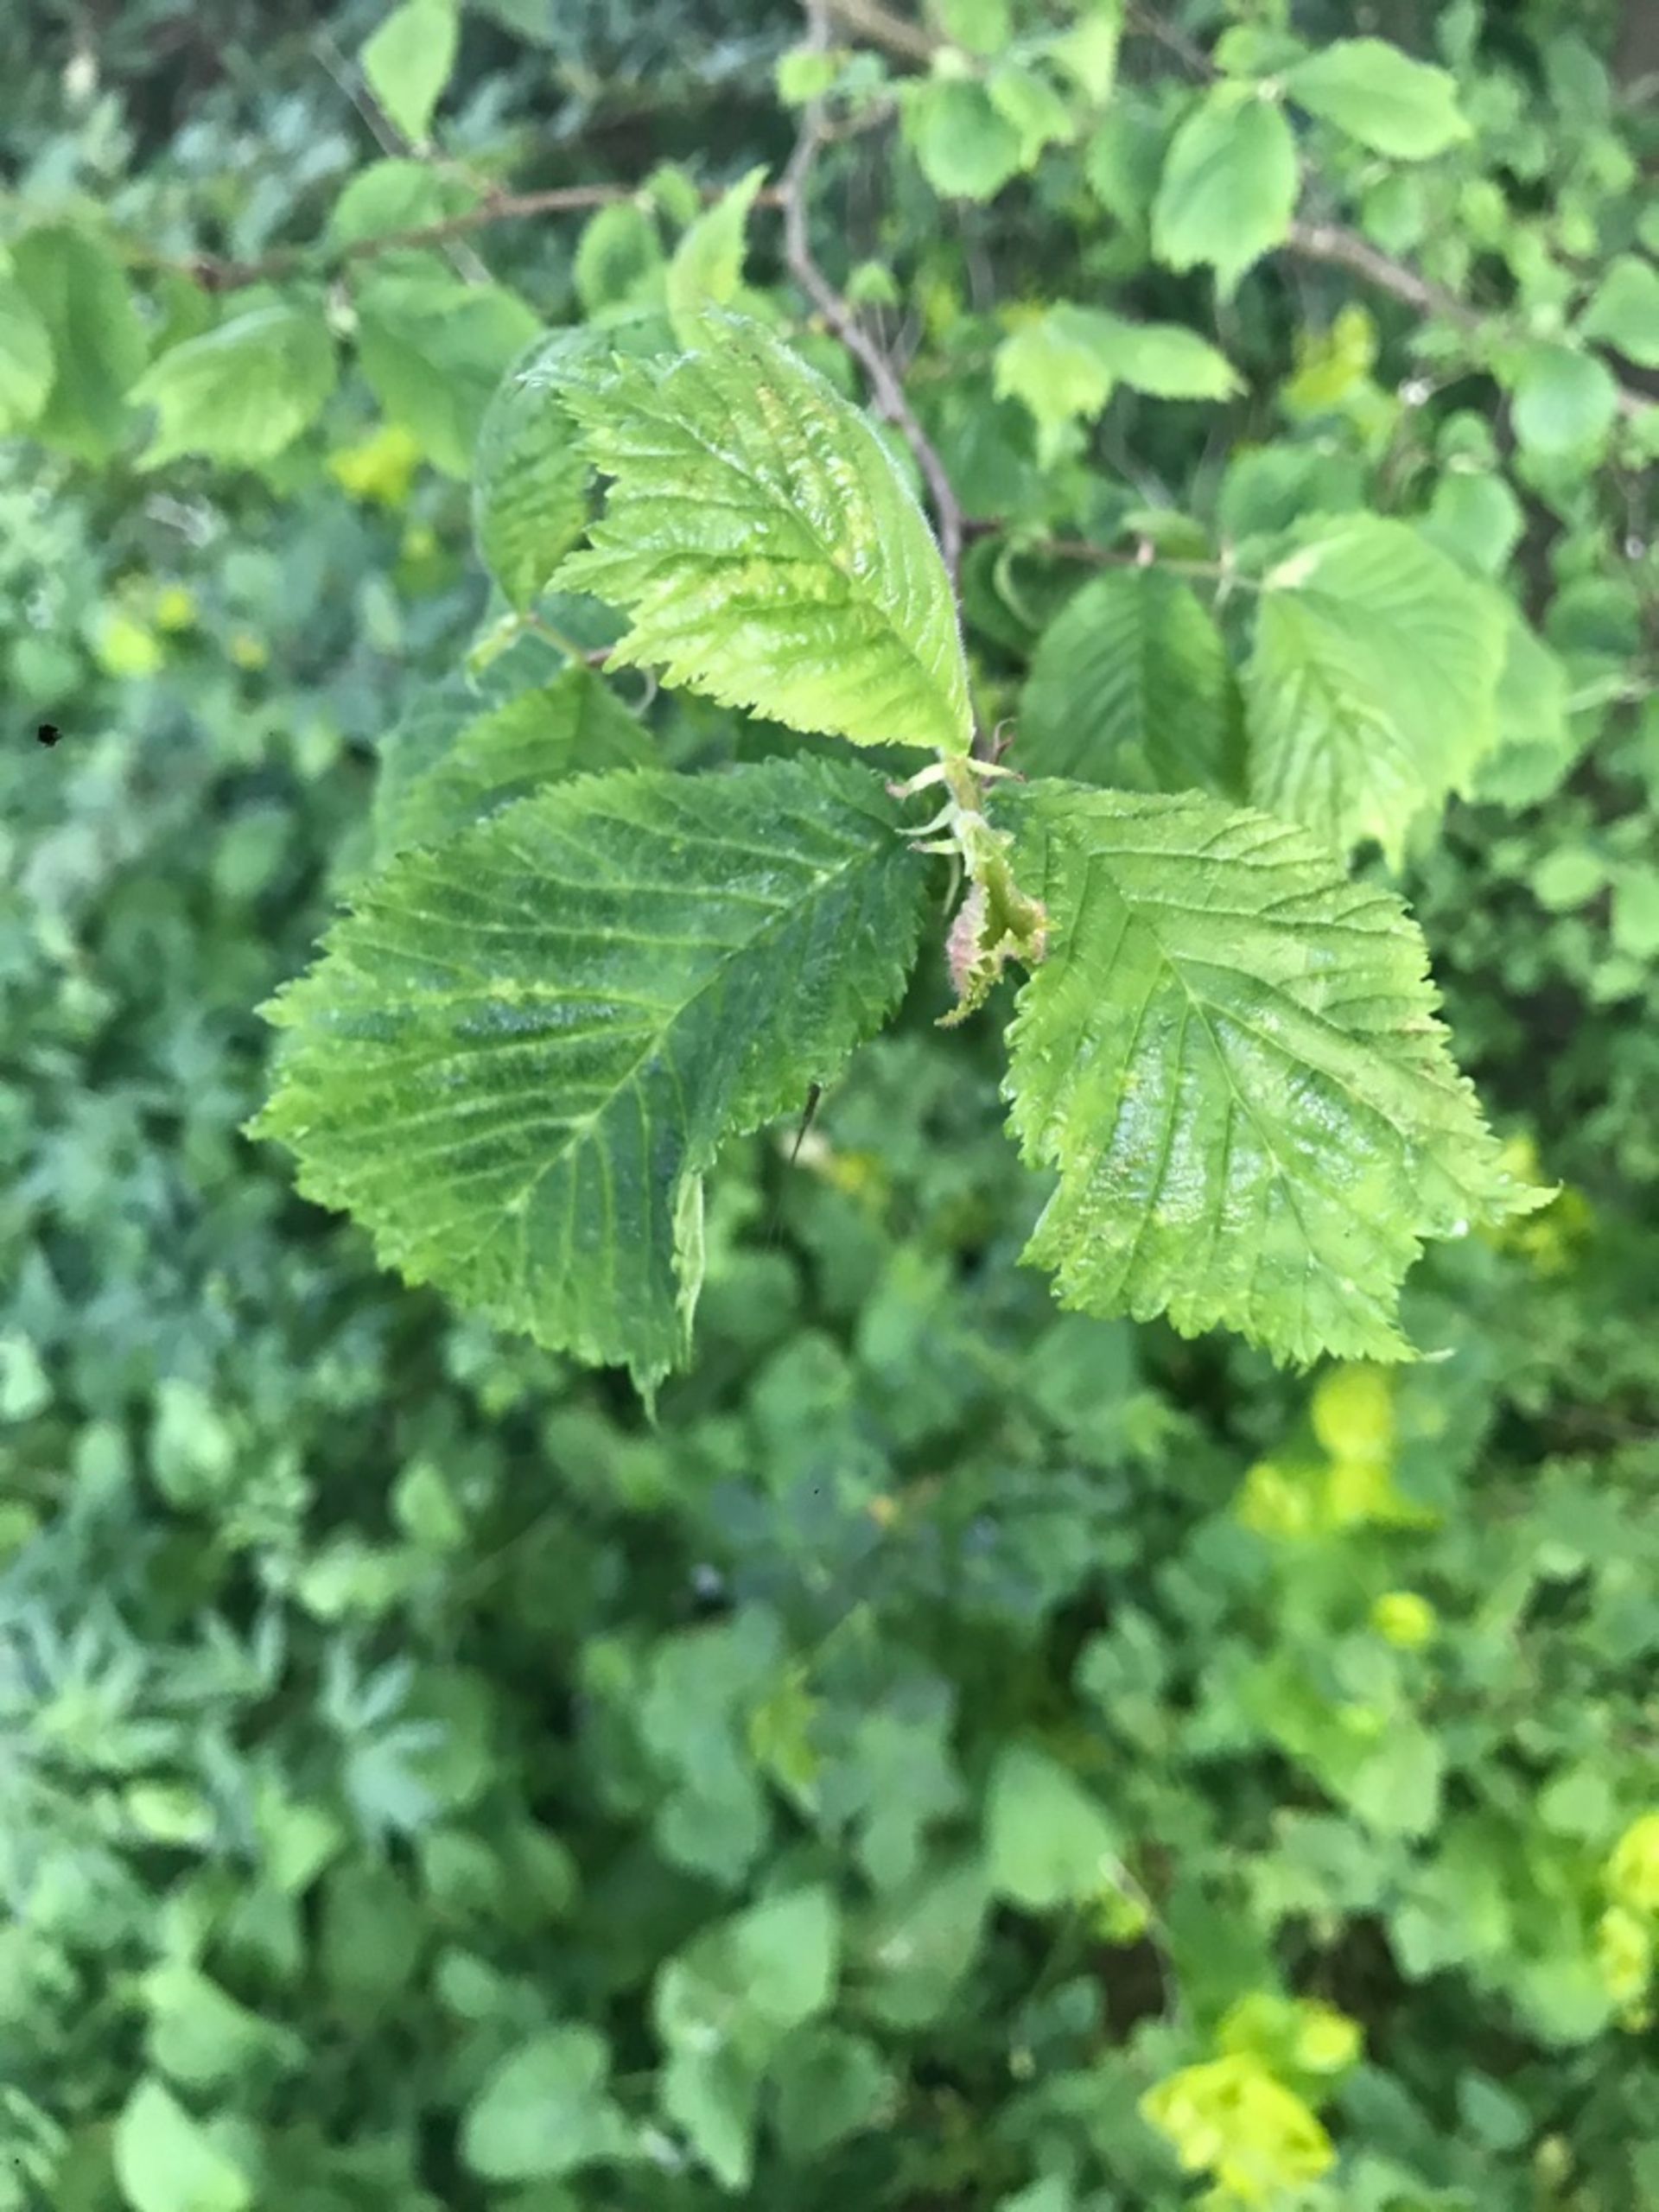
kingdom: Plantae
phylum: Tracheophyta
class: Magnoliopsida
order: Rosales
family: Ulmaceae
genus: Ulmus
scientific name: Ulmus glabra
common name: Skov-elm/storbladet elm
